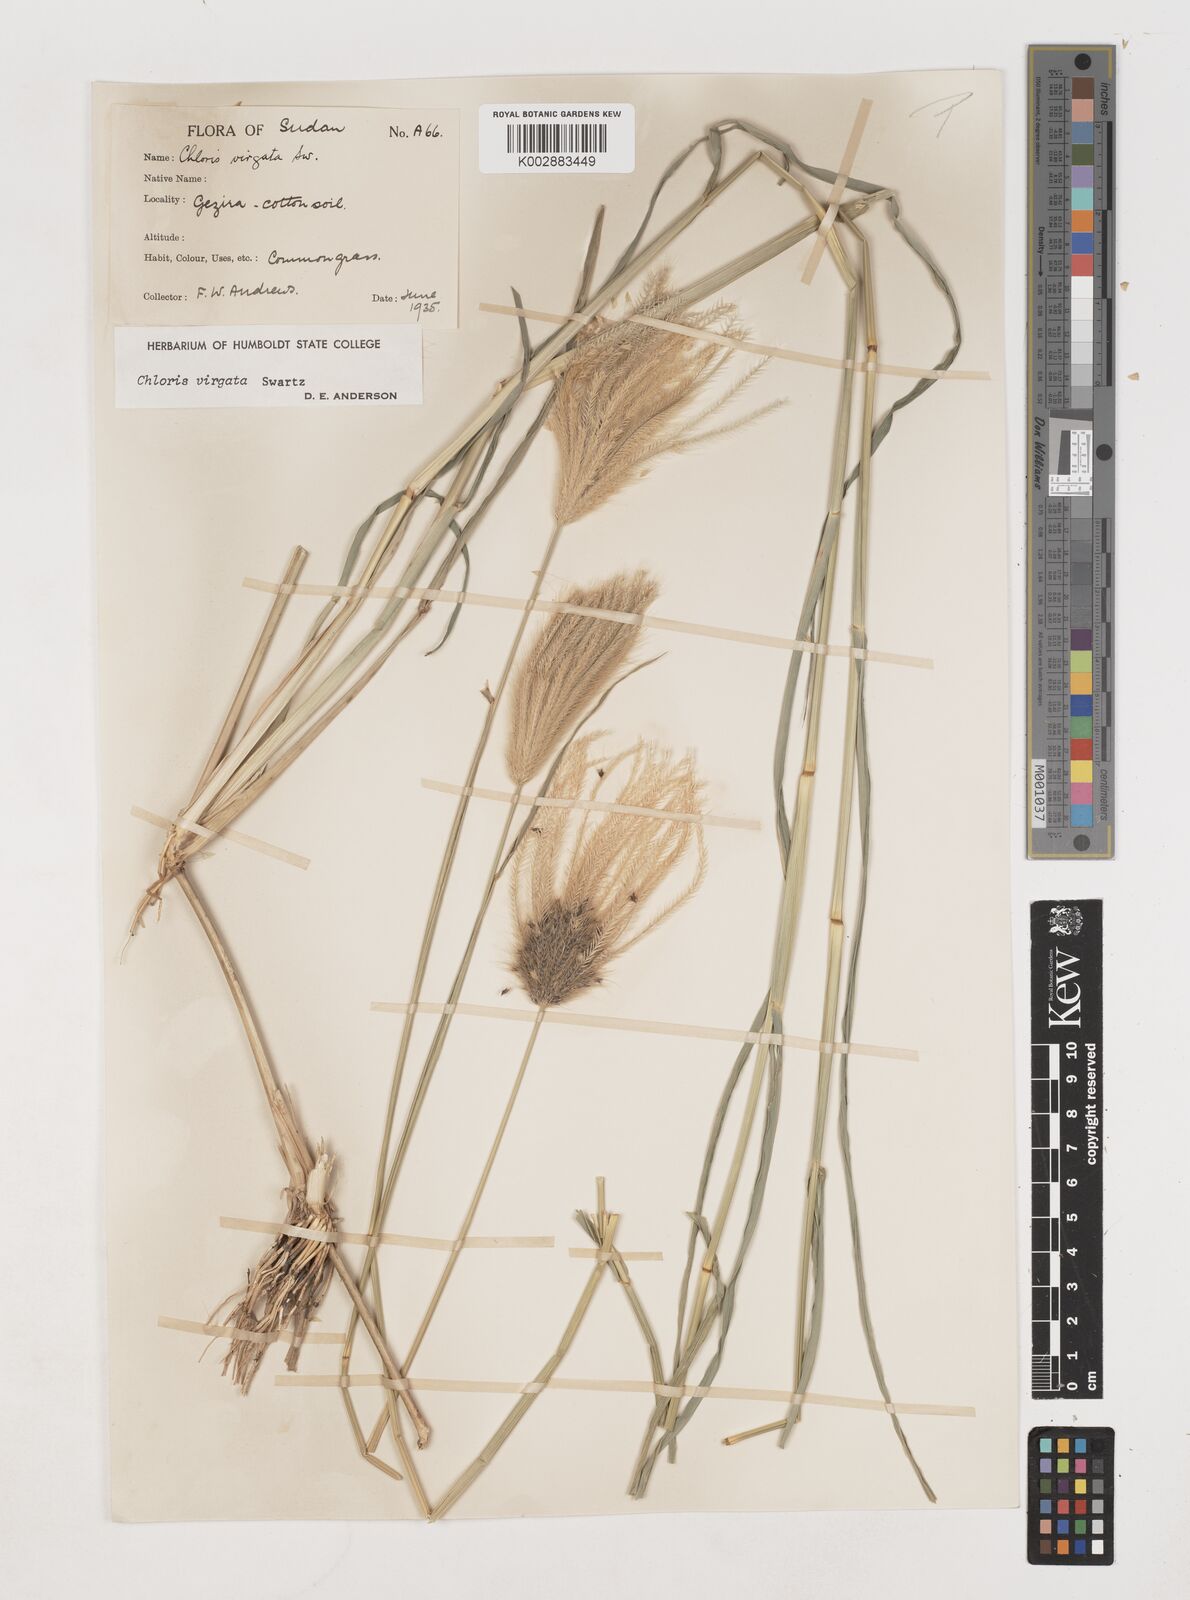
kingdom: Plantae
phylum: Tracheophyta
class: Liliopsida
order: Poales
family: Poaceae
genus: Chloris
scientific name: Chloris virgata
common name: Feathery rhodes-grass
